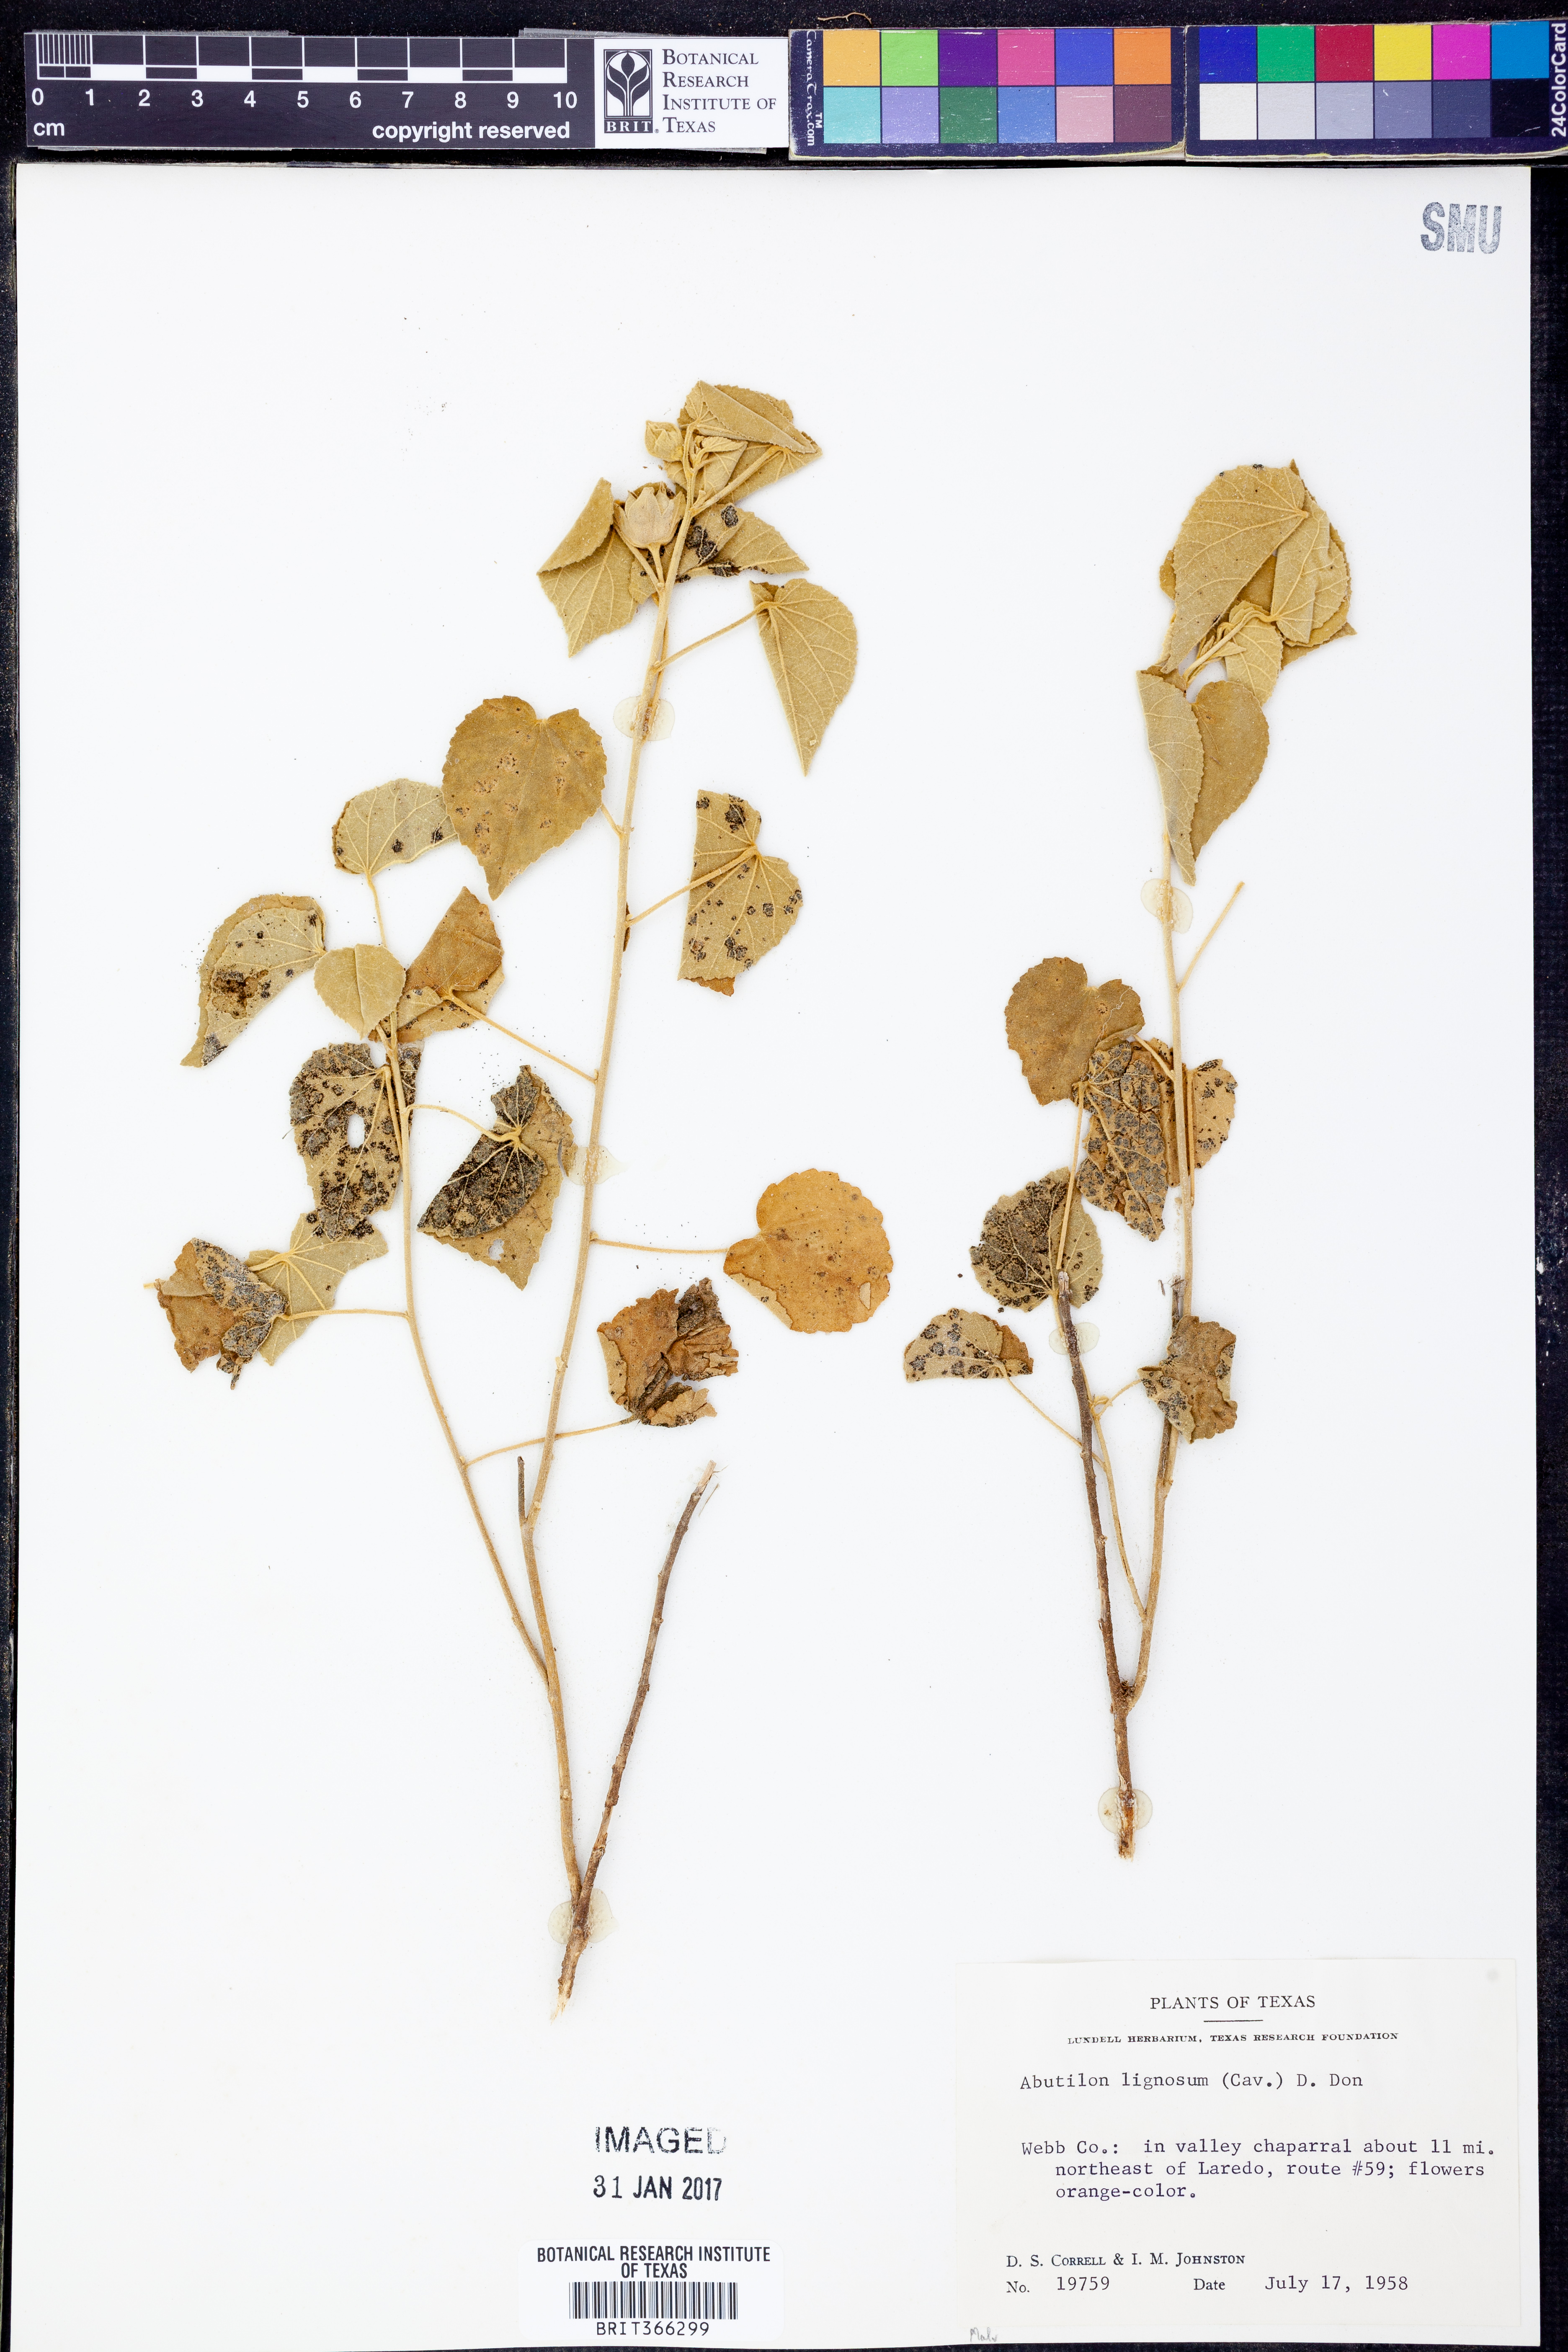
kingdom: Plantae
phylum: Tracheophyta
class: Magnoliopsida
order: Malvales
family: Malvaceae
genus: Abutilon
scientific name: Abutilon abutiloides
